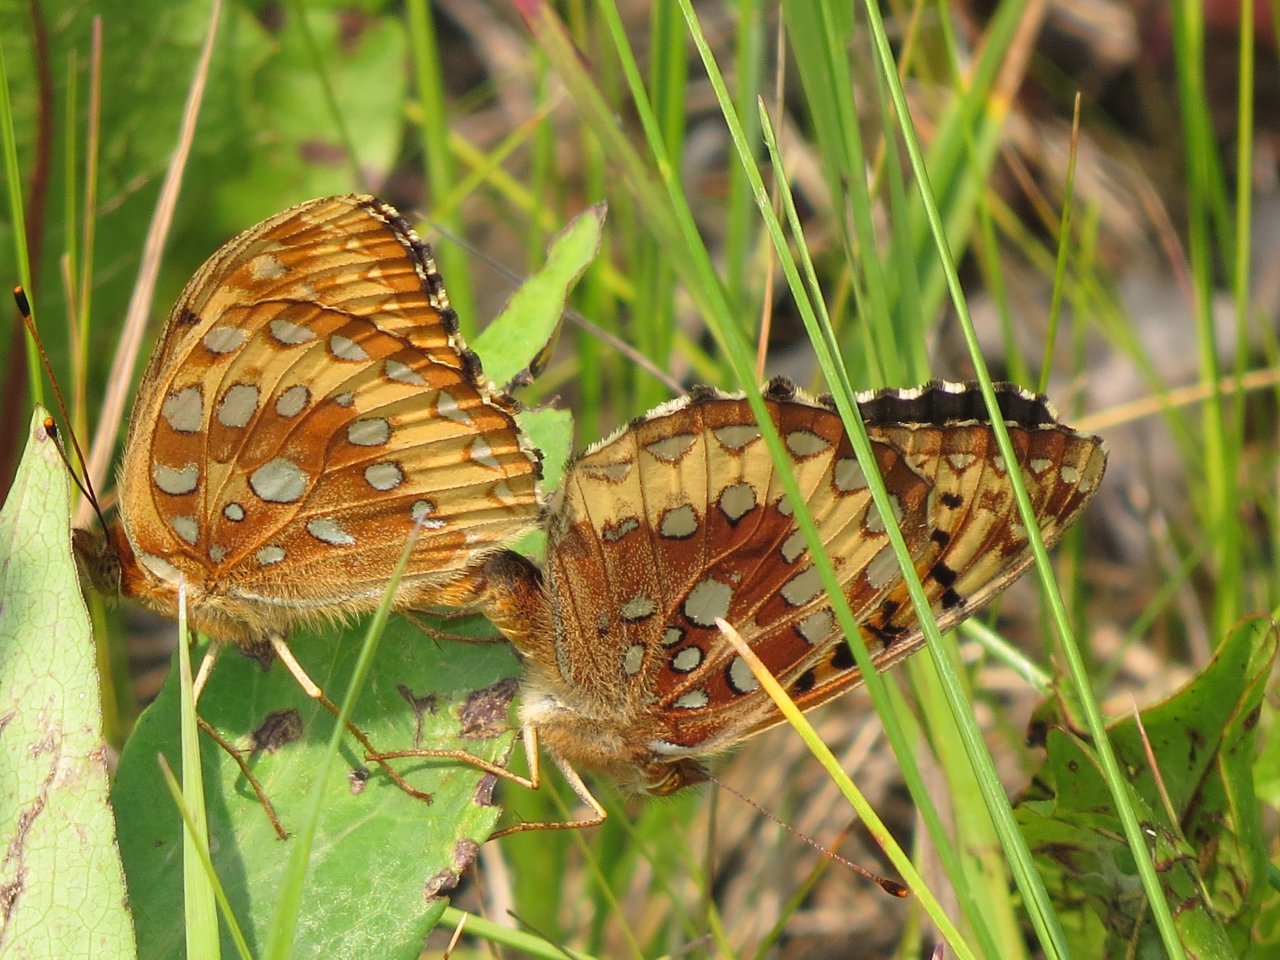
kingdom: Animalia
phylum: Arthropoda
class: Insecta
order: Lepidoptera
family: Nymphalidae
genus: Speyeria
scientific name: Speyeria cybele
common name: Great Spangled Fritillary
